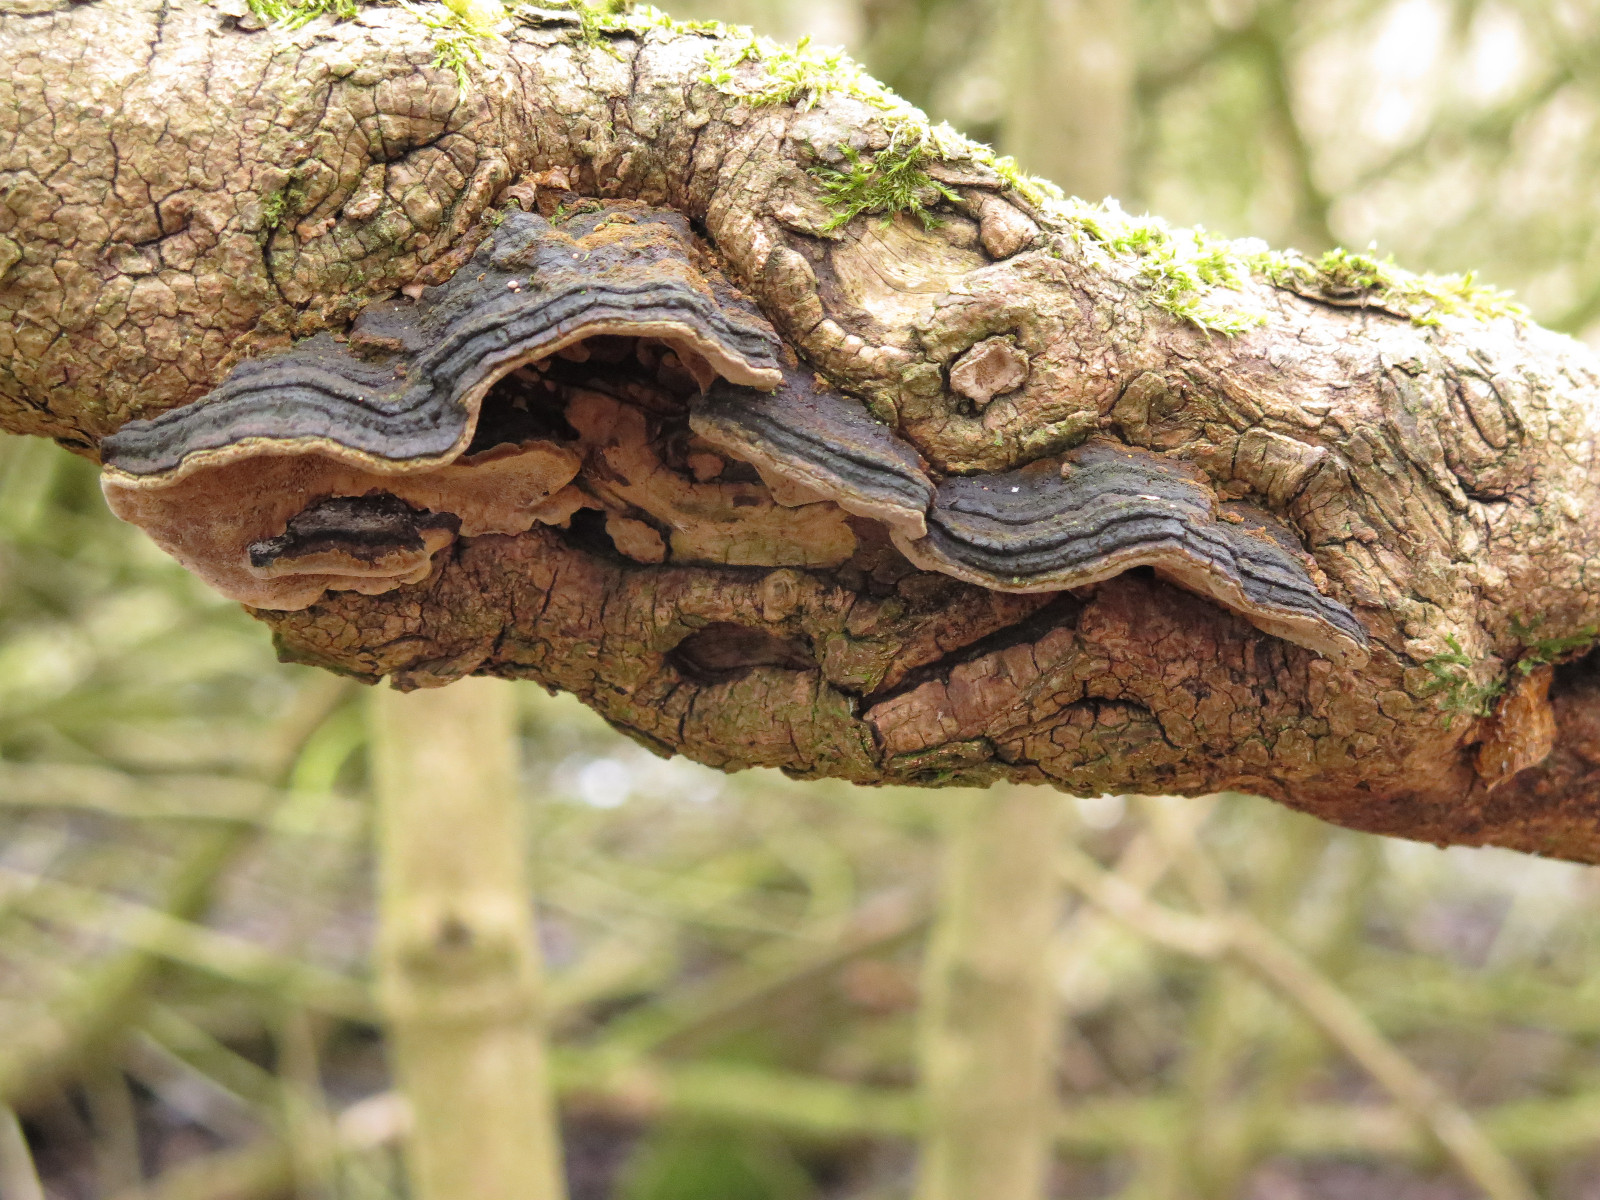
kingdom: Fungi
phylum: Basidiomycota
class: Agaricomycetes
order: Hymenochaetales
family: Hymenochaetaceae
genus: Phellinopsis
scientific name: Phellinopsis conchata
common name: pile-ildporesvamp
